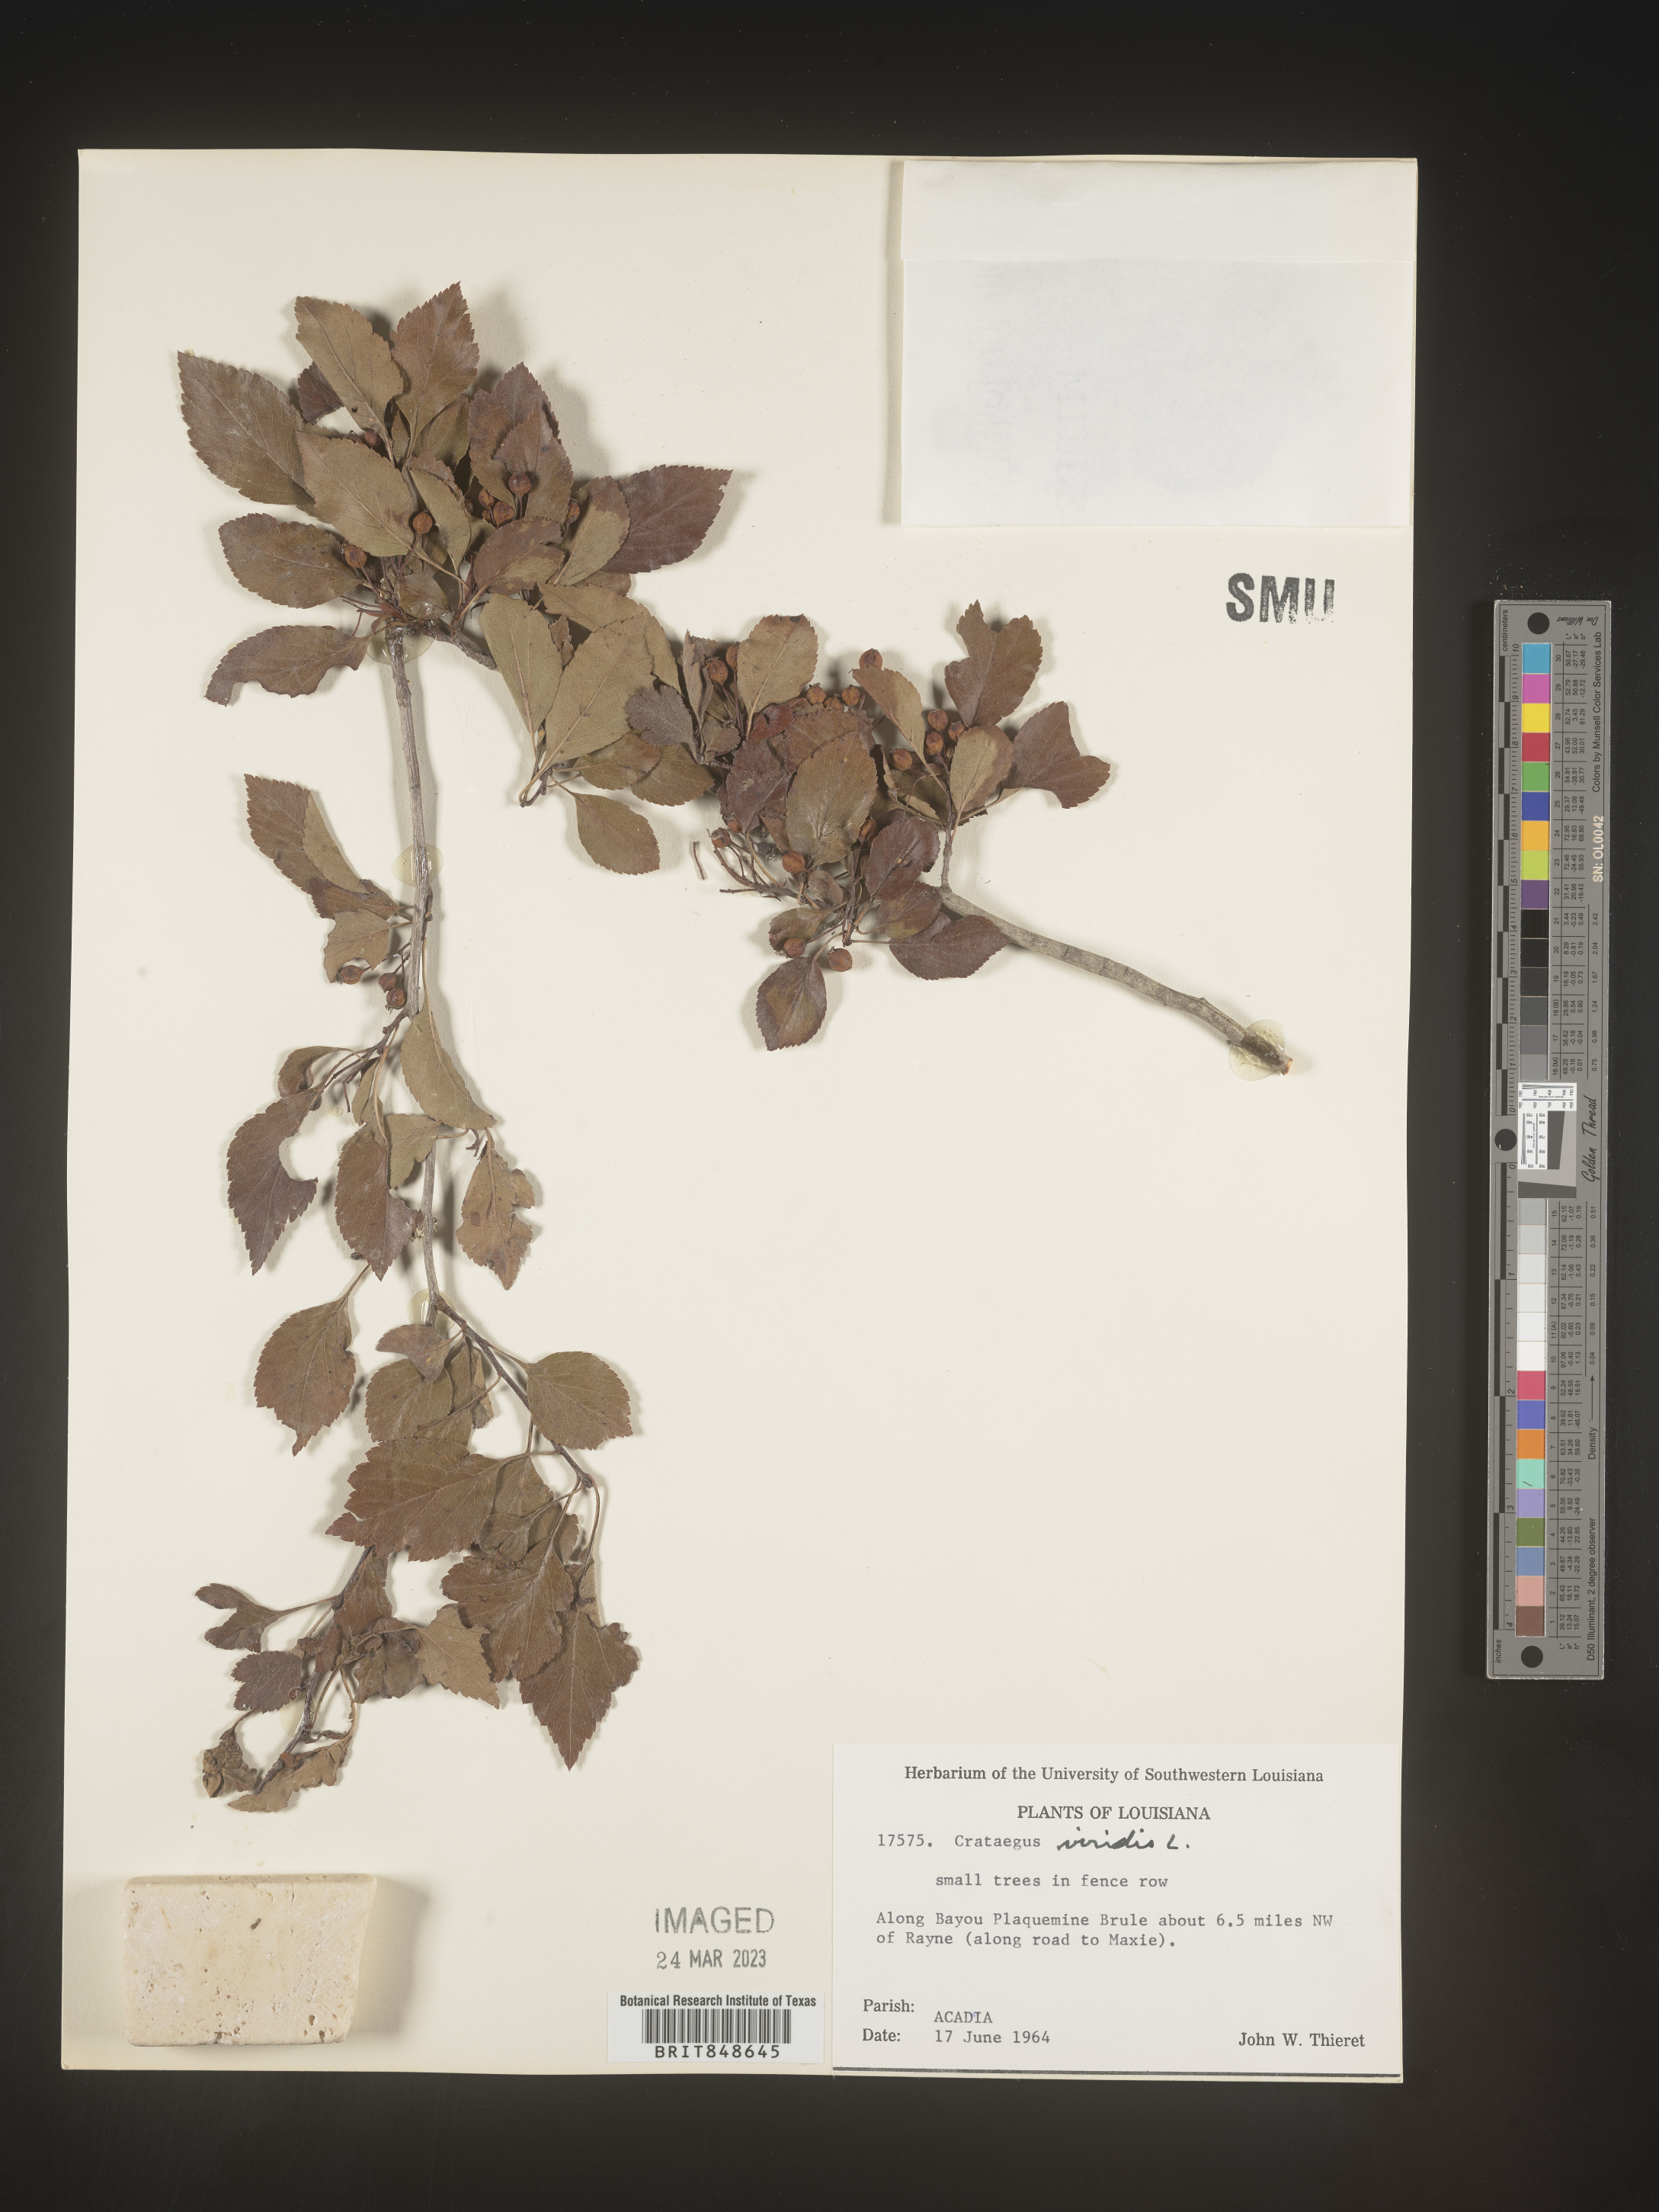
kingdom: Plantae
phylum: Tracheophyta
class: Magnoliopsida
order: Rosales
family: Rosaceae
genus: Crataegus
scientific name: Crataegus viridis
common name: Southernthorn
